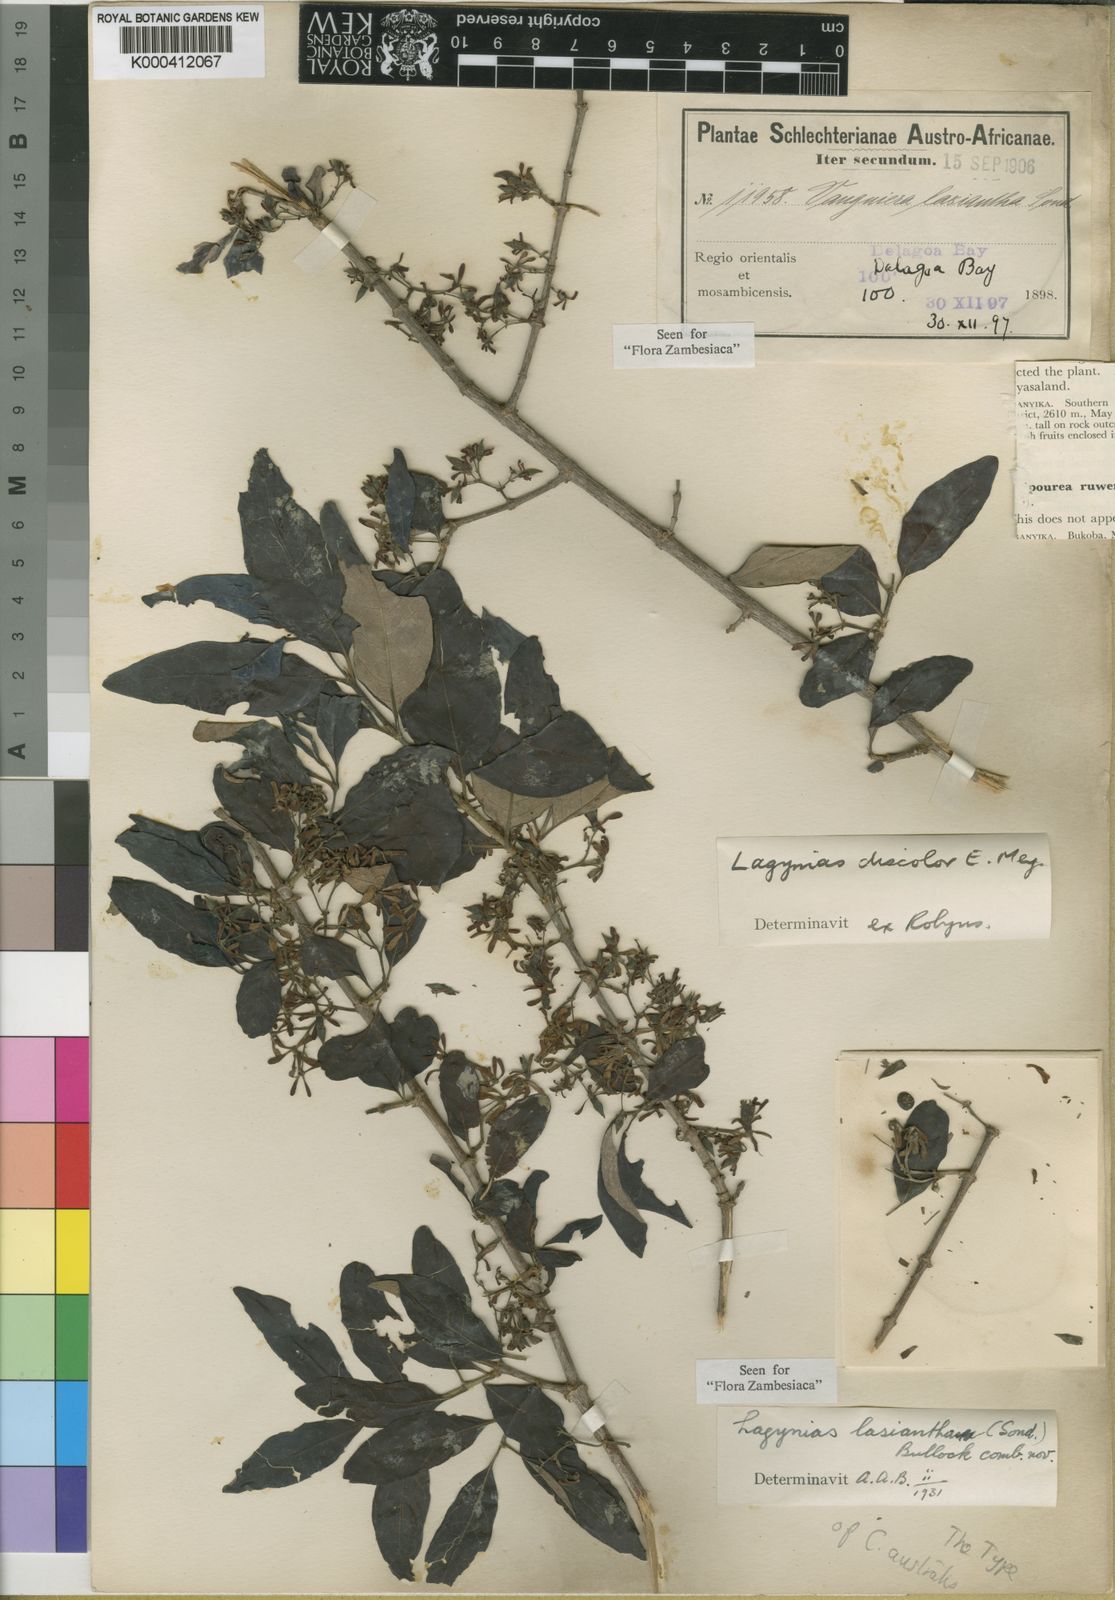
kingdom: Plantae
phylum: Tracheophyta
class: Magnoliopsida
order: Gentianales
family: Rubiaceae
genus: Vangueria
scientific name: Vangueria lasiantha
